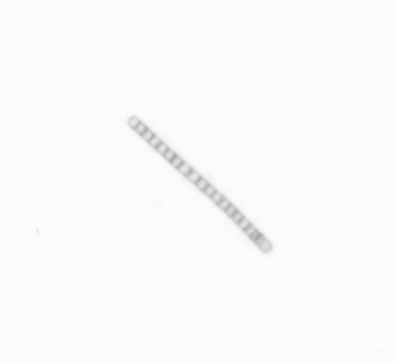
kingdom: Chromista
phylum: Ochrophyta
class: Bacillariophyceae
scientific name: Bacillariophyceae
